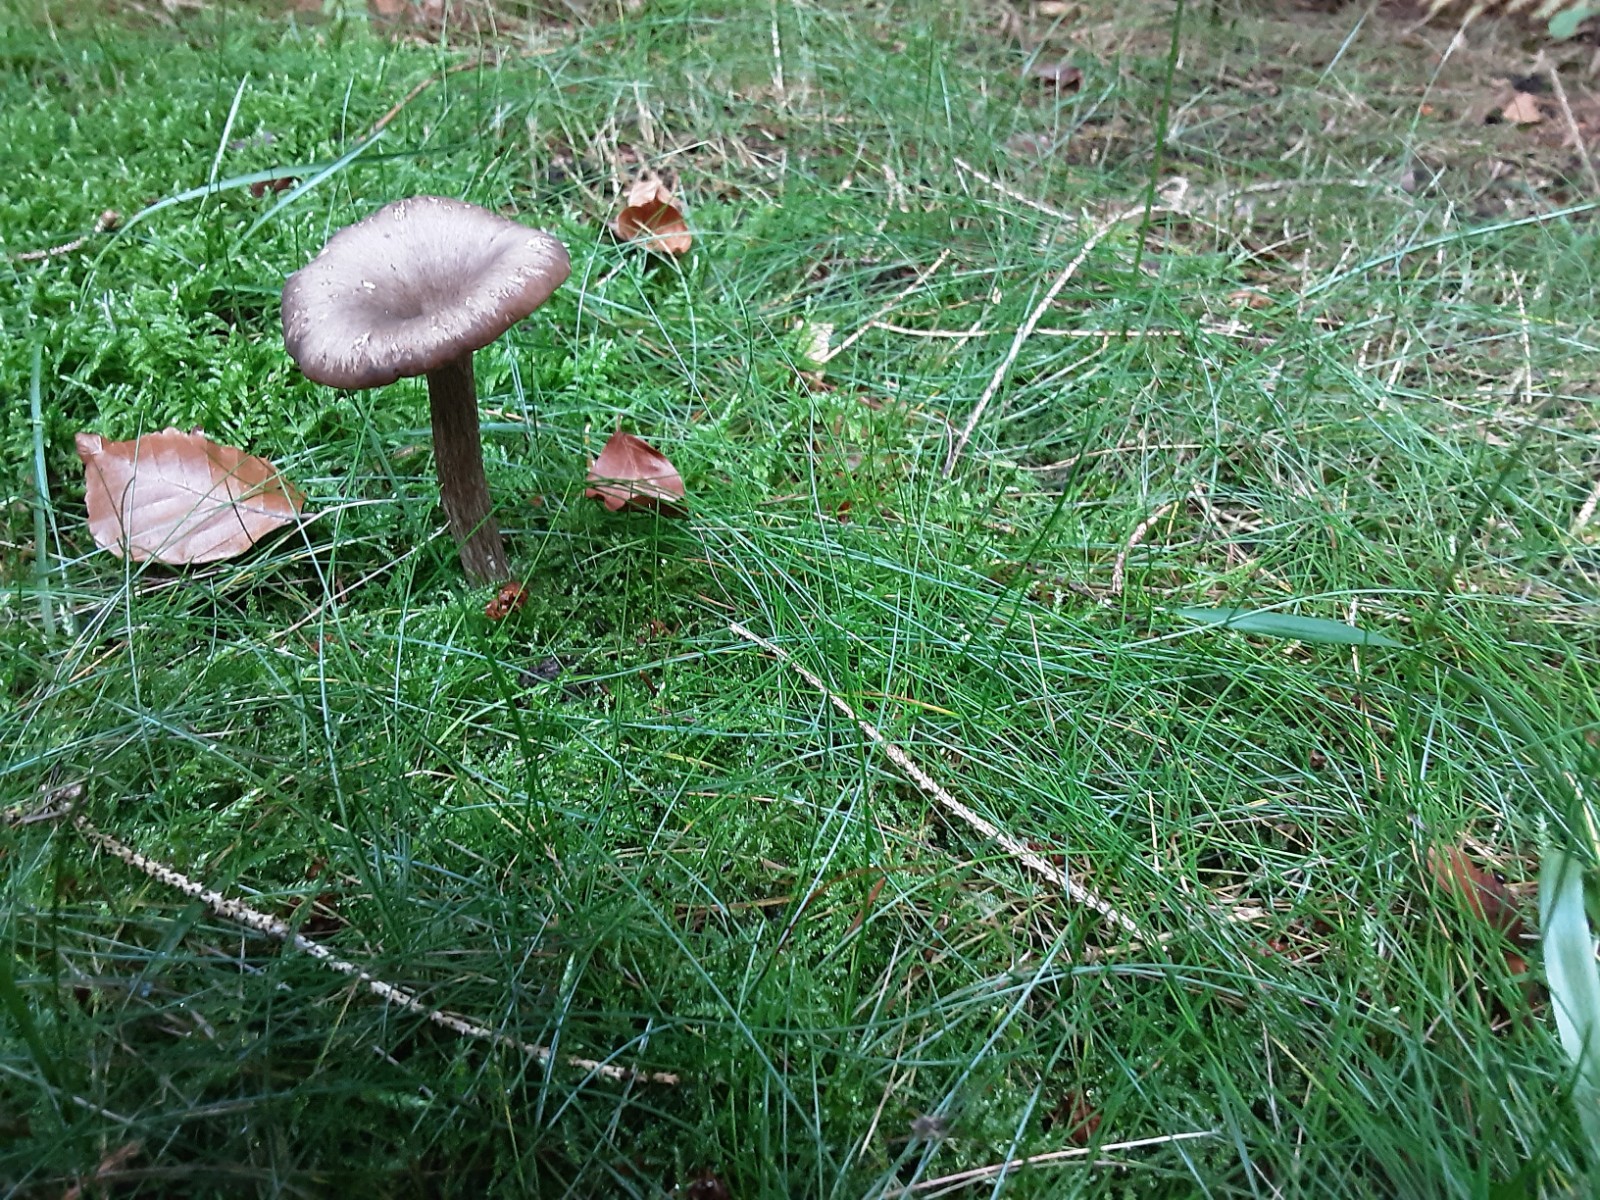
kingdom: Fungi
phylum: Basidiomycota
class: Agaricomycetes
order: Agaricales
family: Pseudoclitocybaceae
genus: Pseudoclitocybe
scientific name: Pseudoclitocybe cyathiformis
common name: almindelig bægertragthat
